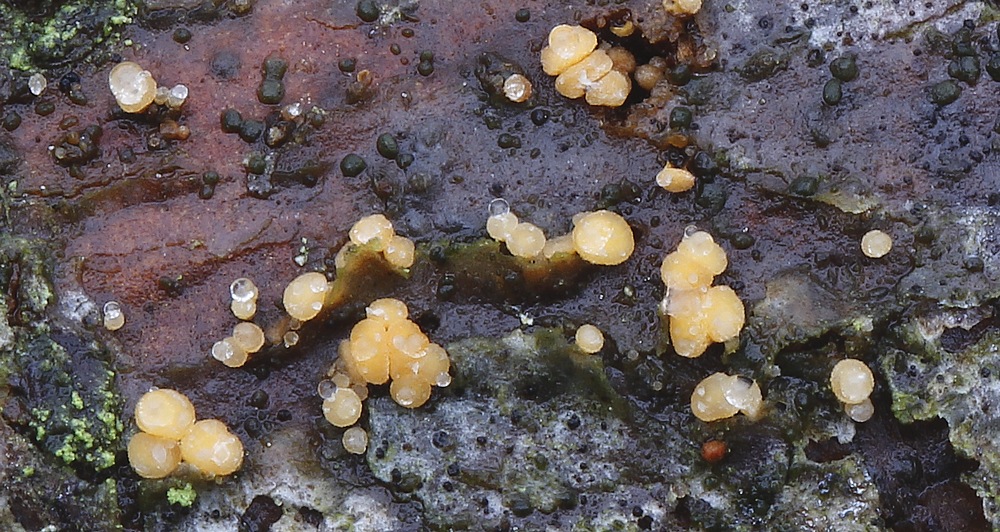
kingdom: Fungi
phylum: Ascomycota
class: Leotiomycetes
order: Helotiales
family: Dermateaceae
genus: Pezicula
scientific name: Pezicula eucrita
